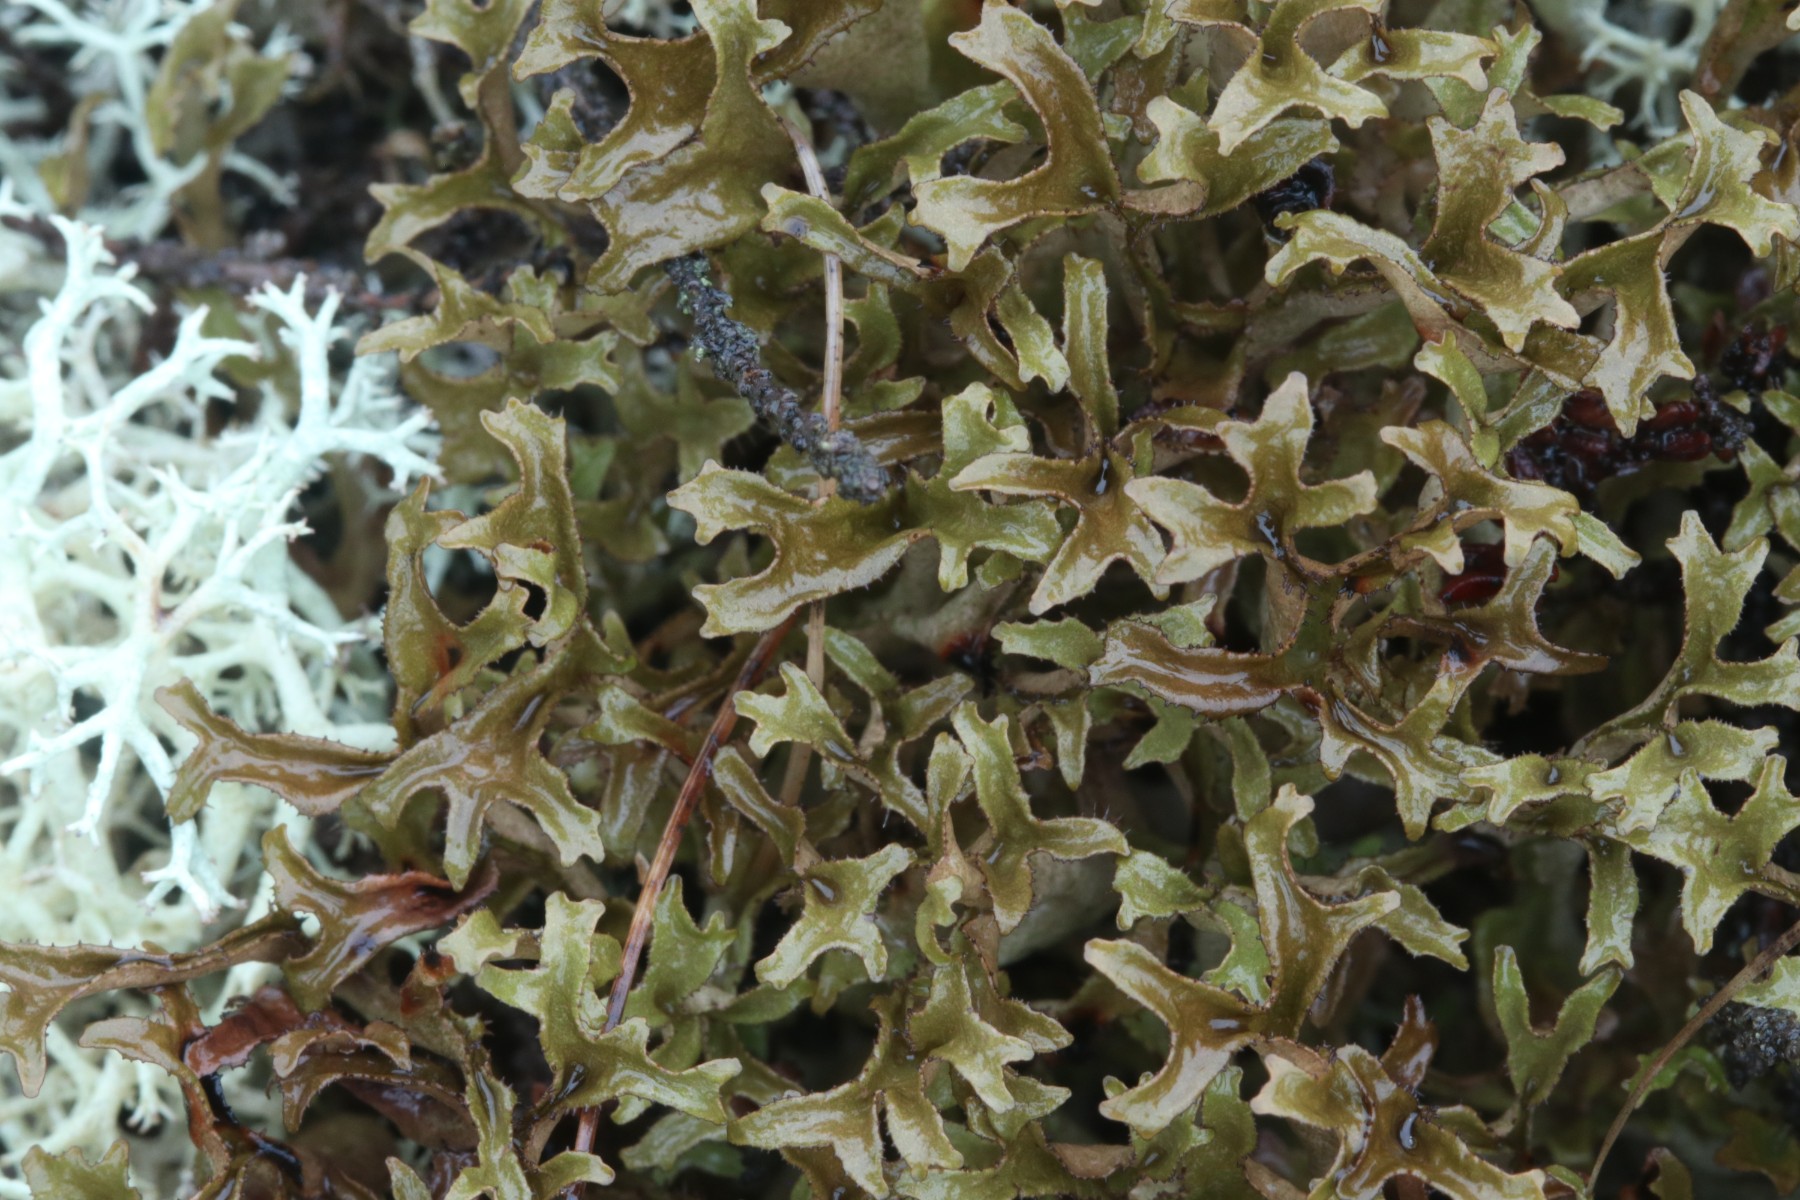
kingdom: Fungi
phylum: Ascomycota
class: Lecanoromycetes
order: Lecanorales
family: Parmeliaceae
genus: Cetraria
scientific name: Cetraria islandica
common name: islandsk kruslav
